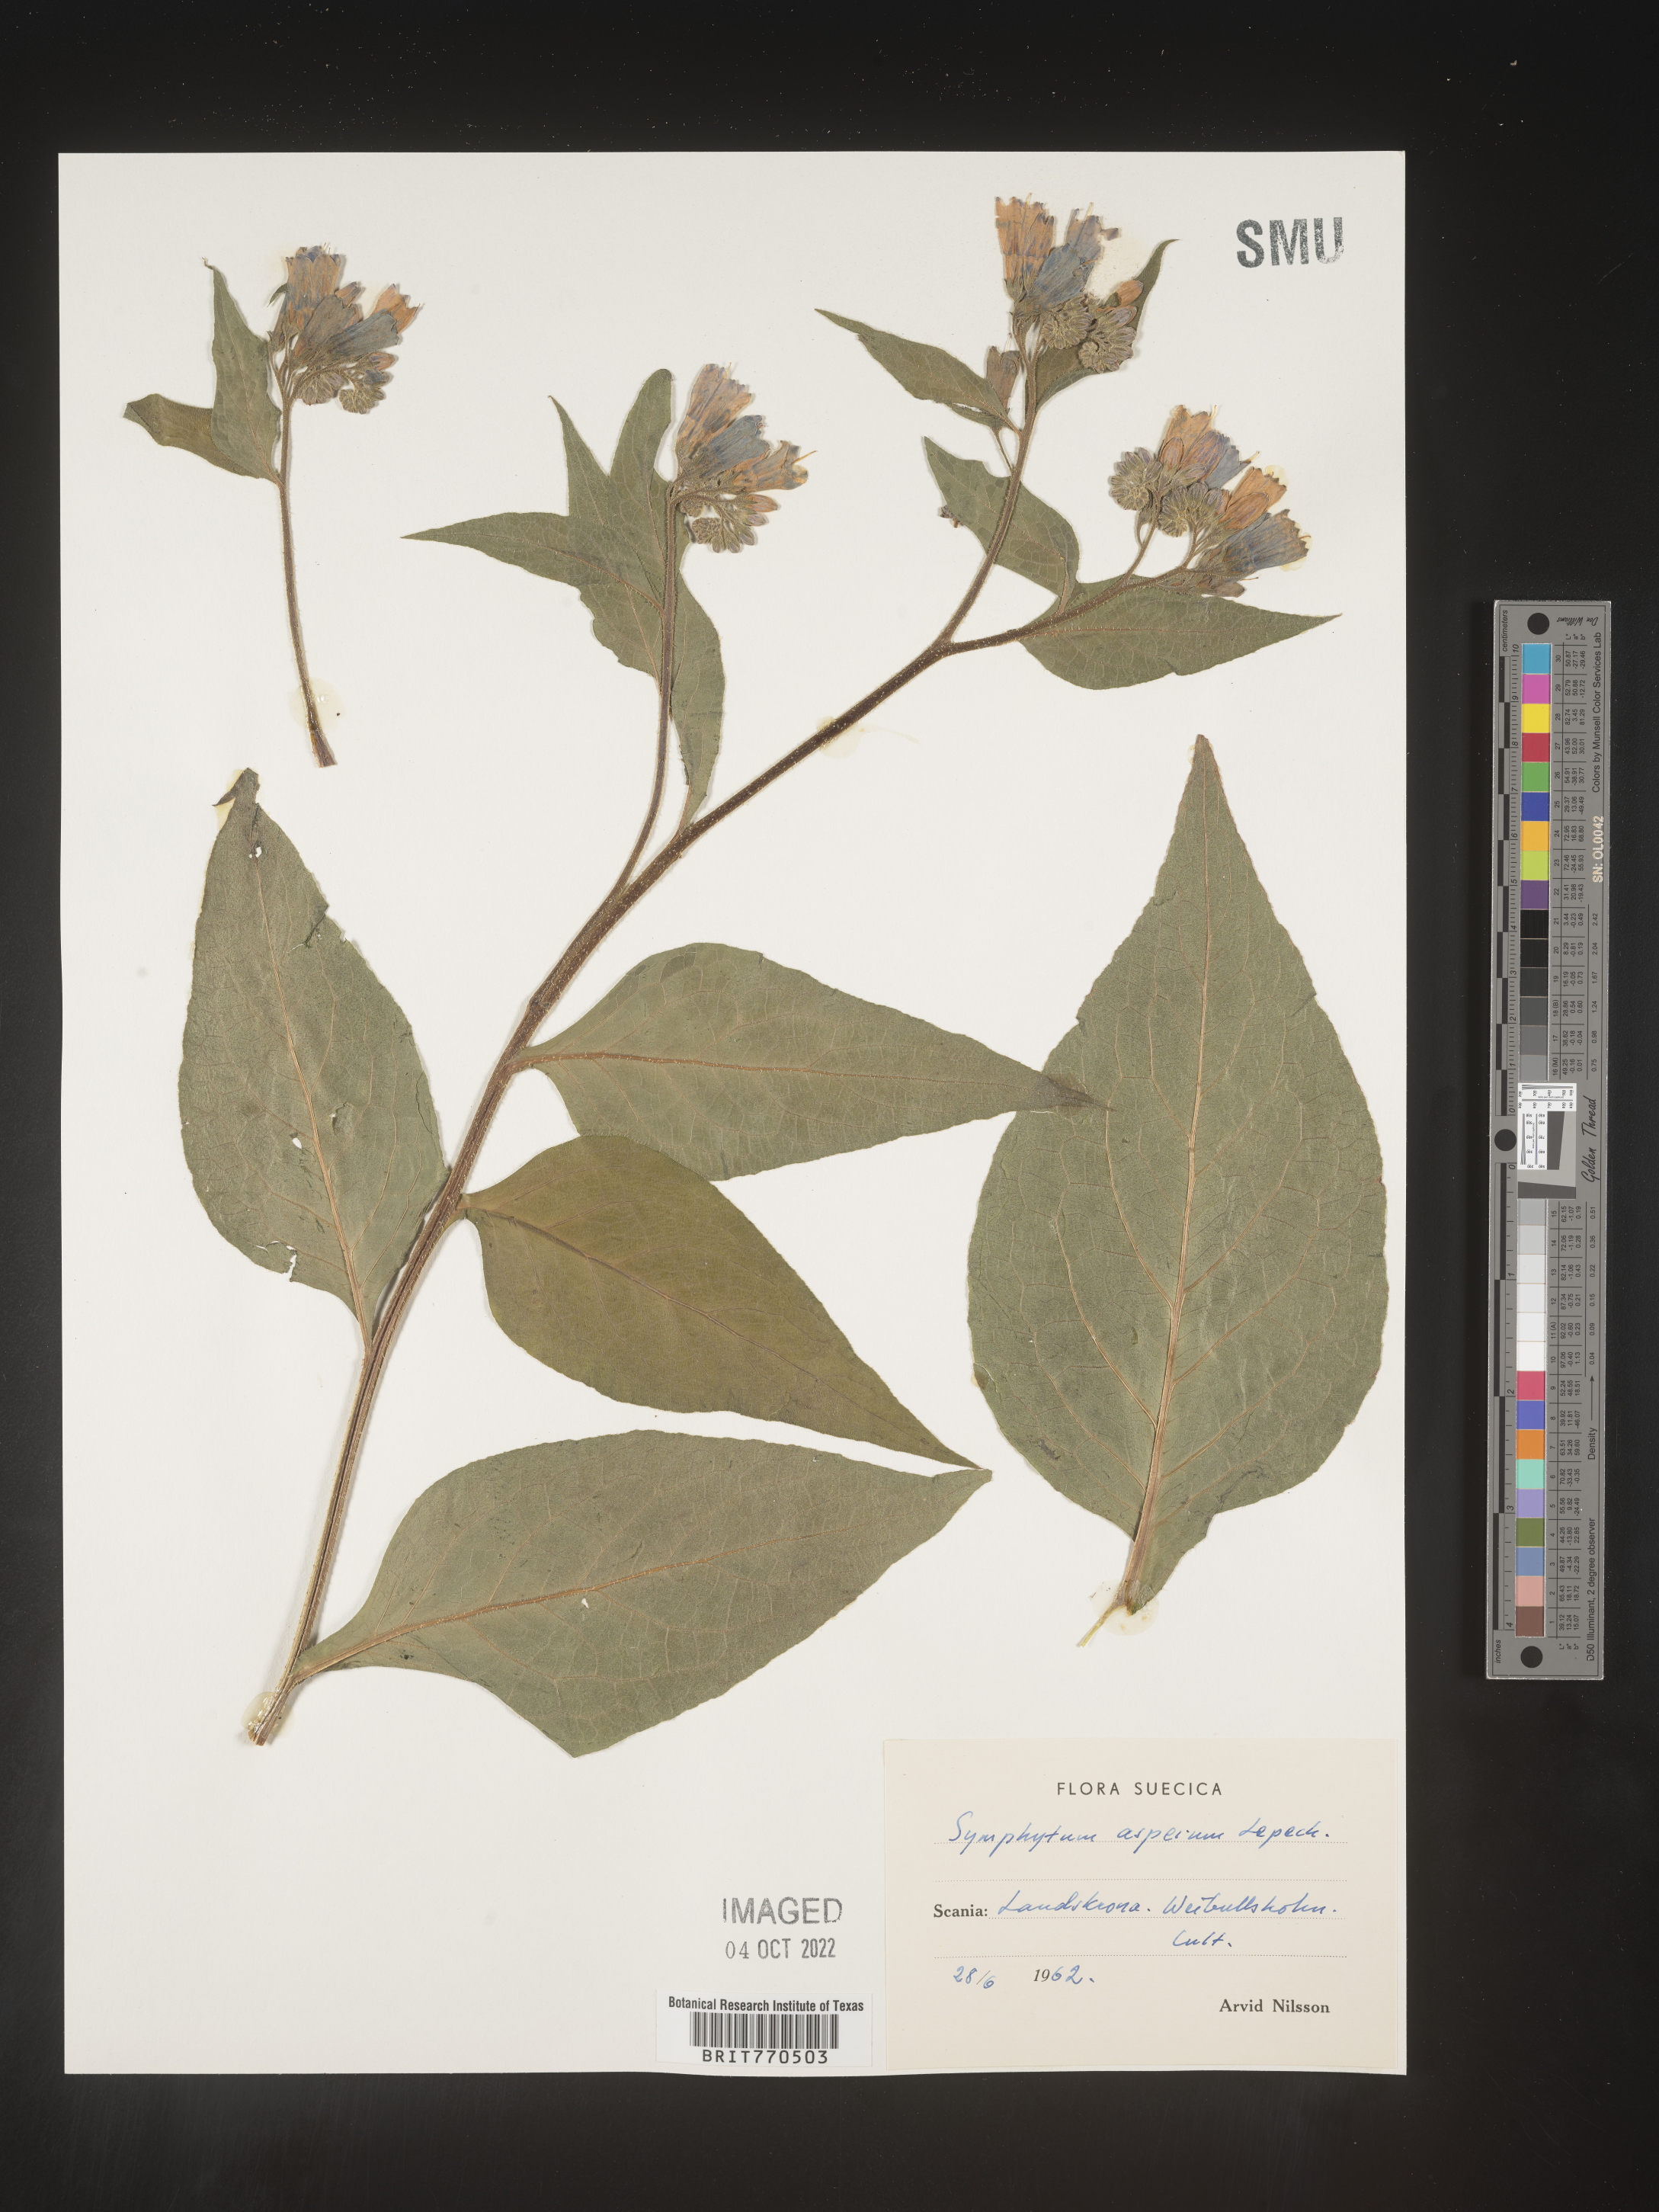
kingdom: Plantae
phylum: Tracheophyta
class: Magnoliopsida
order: Boraginales
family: Boraginaceae
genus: Symphytum
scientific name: Symphytum
